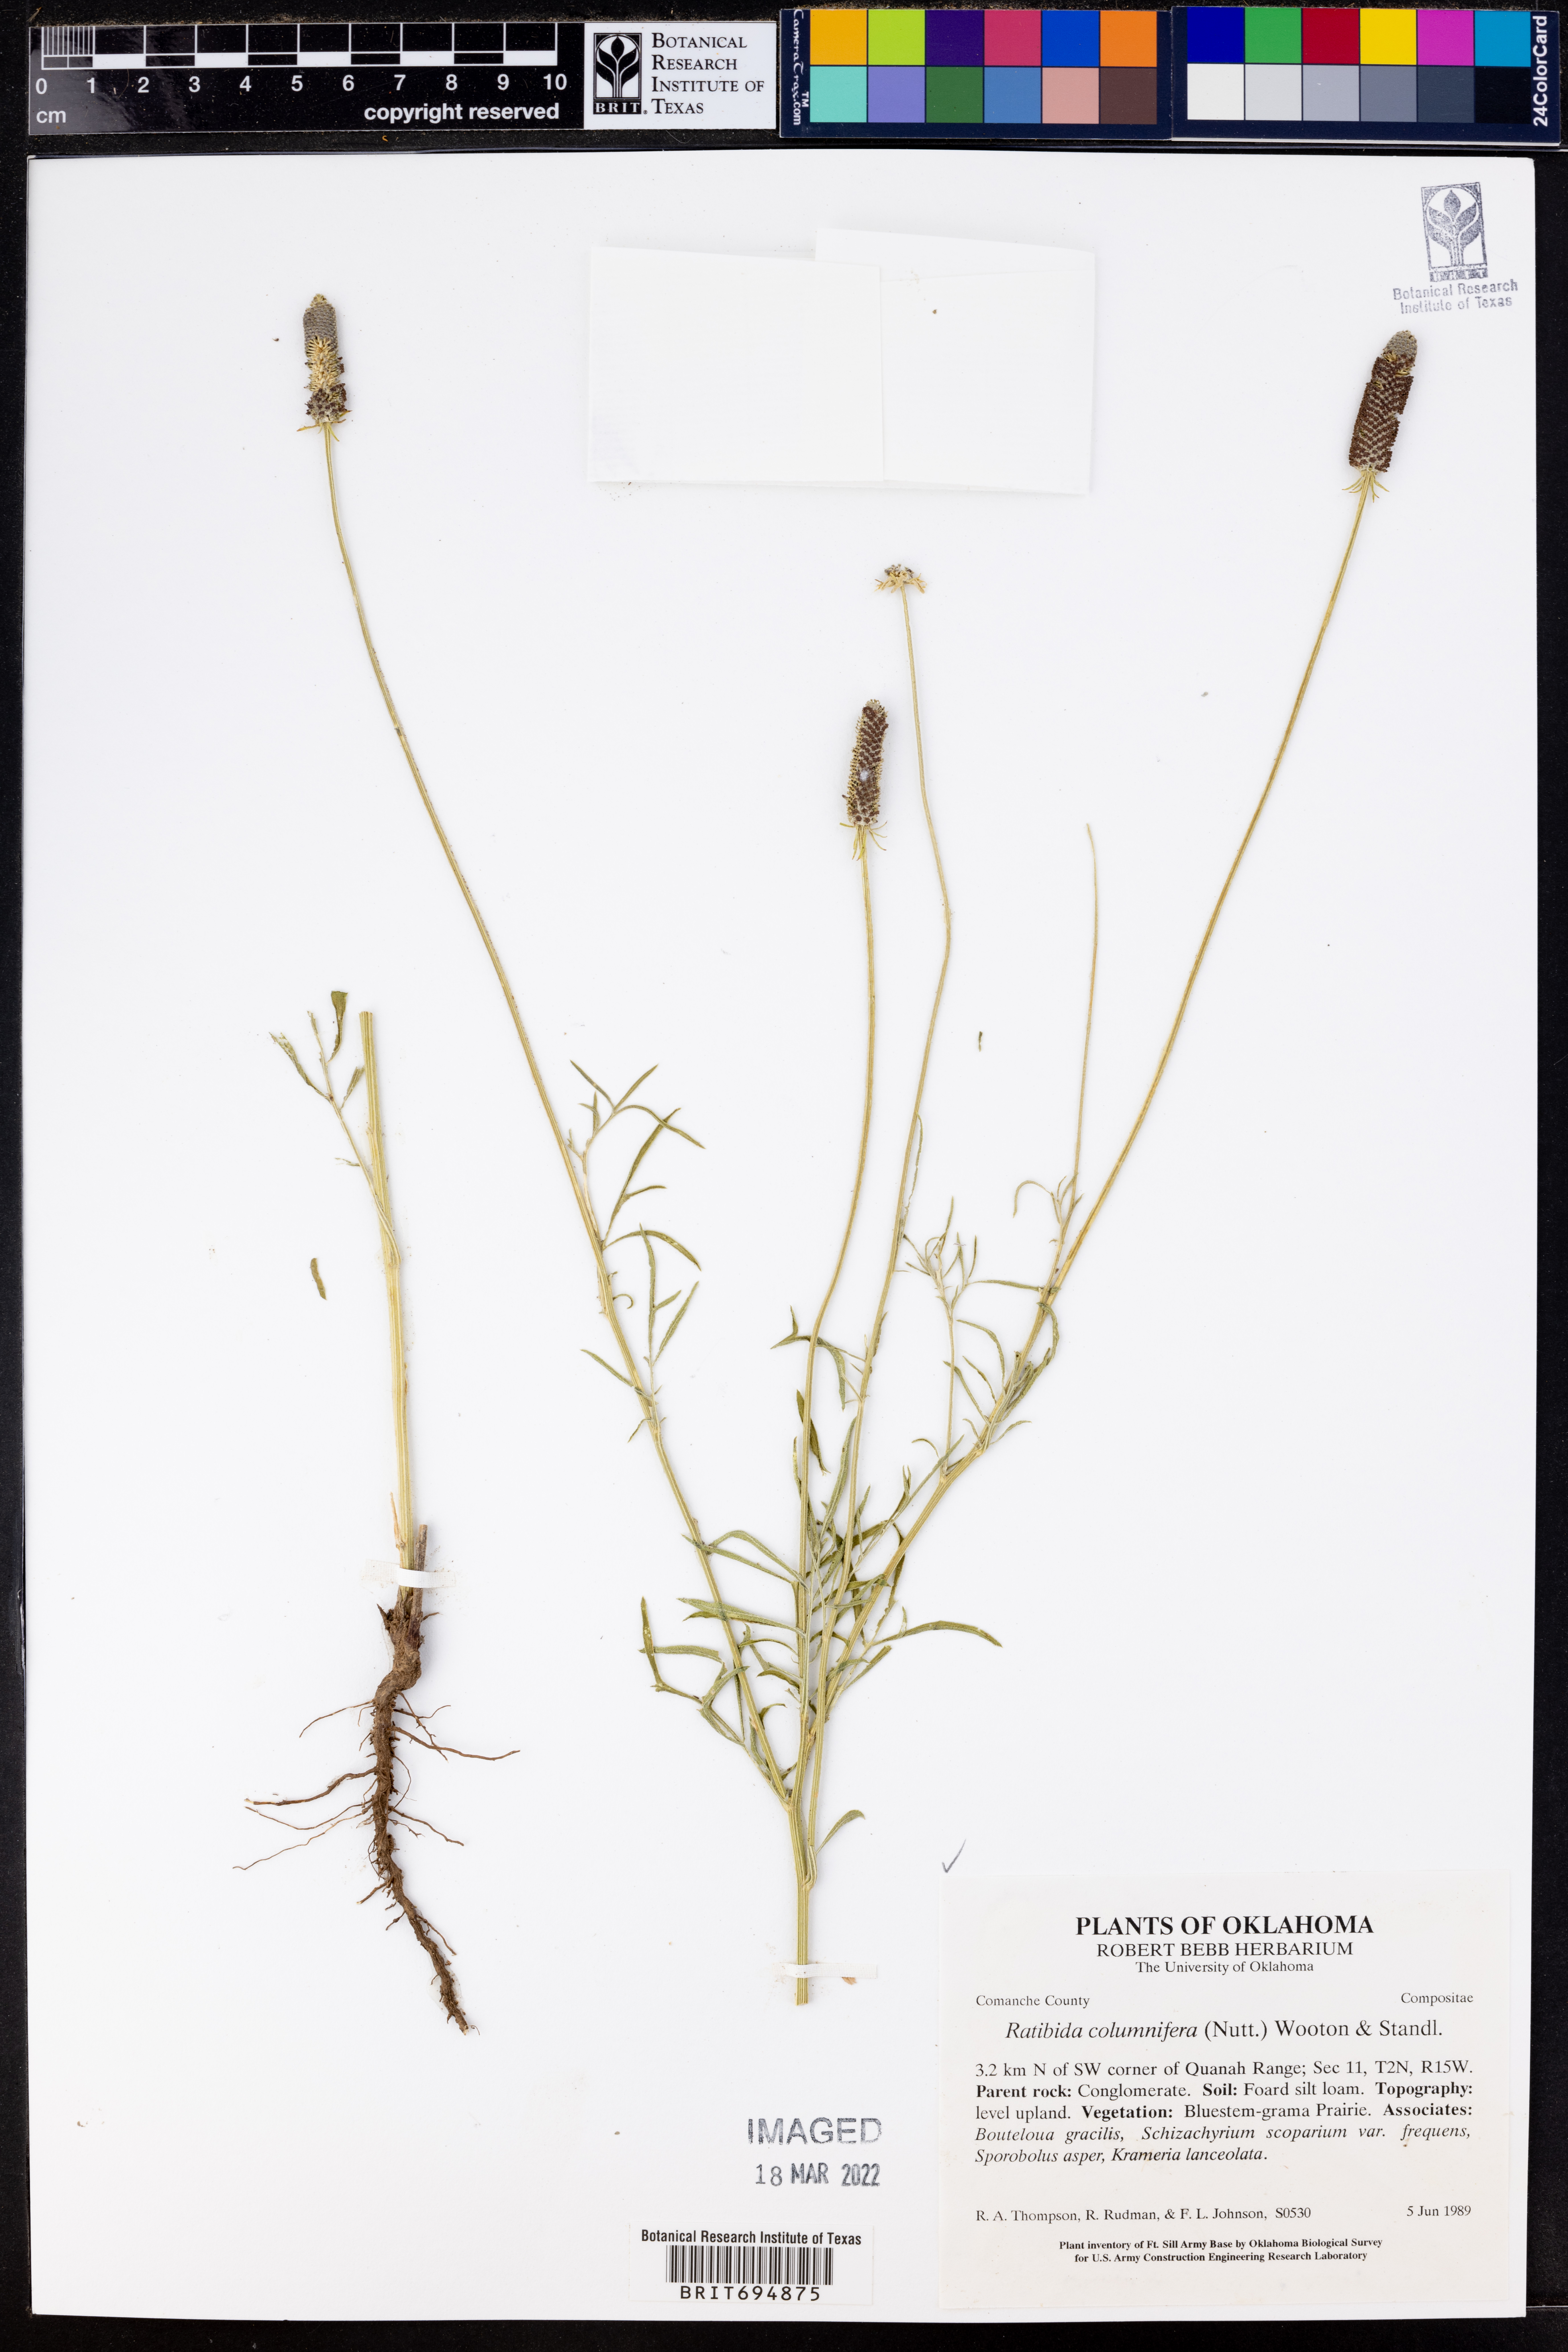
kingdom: Plantae
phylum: Tracheophyta
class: Magnoliopsida
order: Asterales
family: Asteraceae
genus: Ratibida
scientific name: Ratibida columnifera
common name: Prairie coneflower
